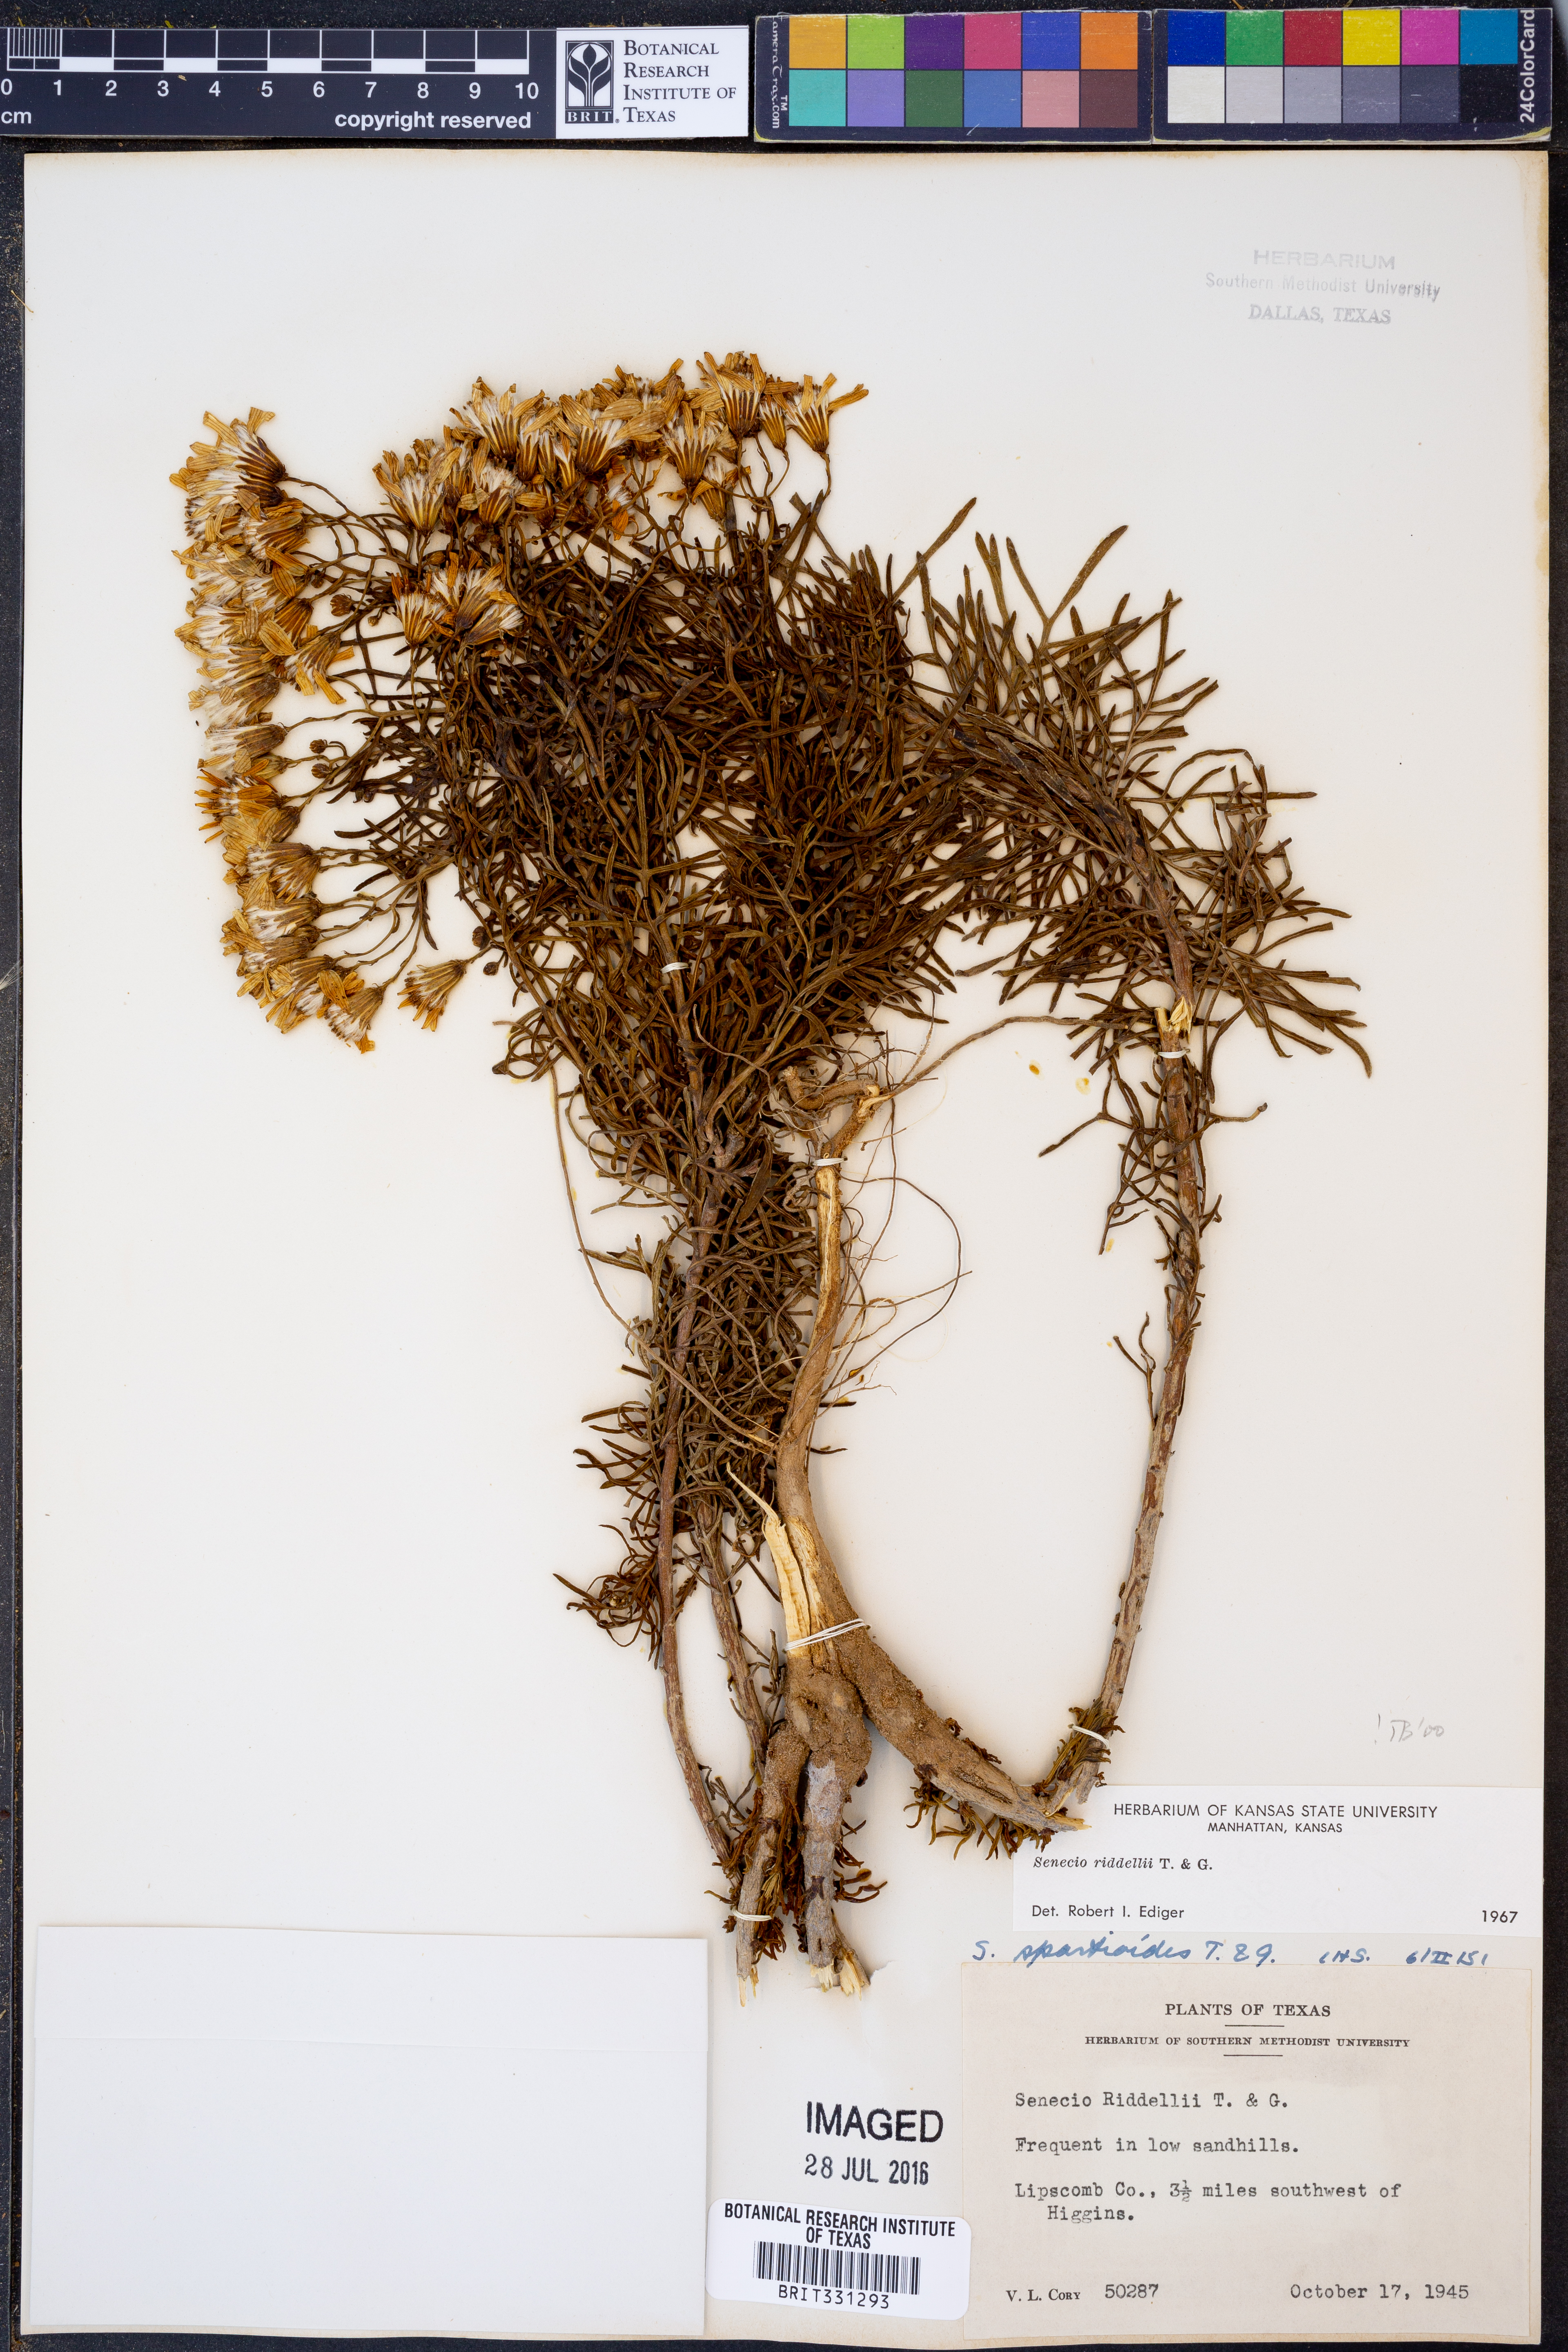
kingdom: Plantae
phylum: Tracheophyta
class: Magnoliopsida
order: Asterales
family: Asteraceae
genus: Senecio
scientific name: Senecio riddellii
